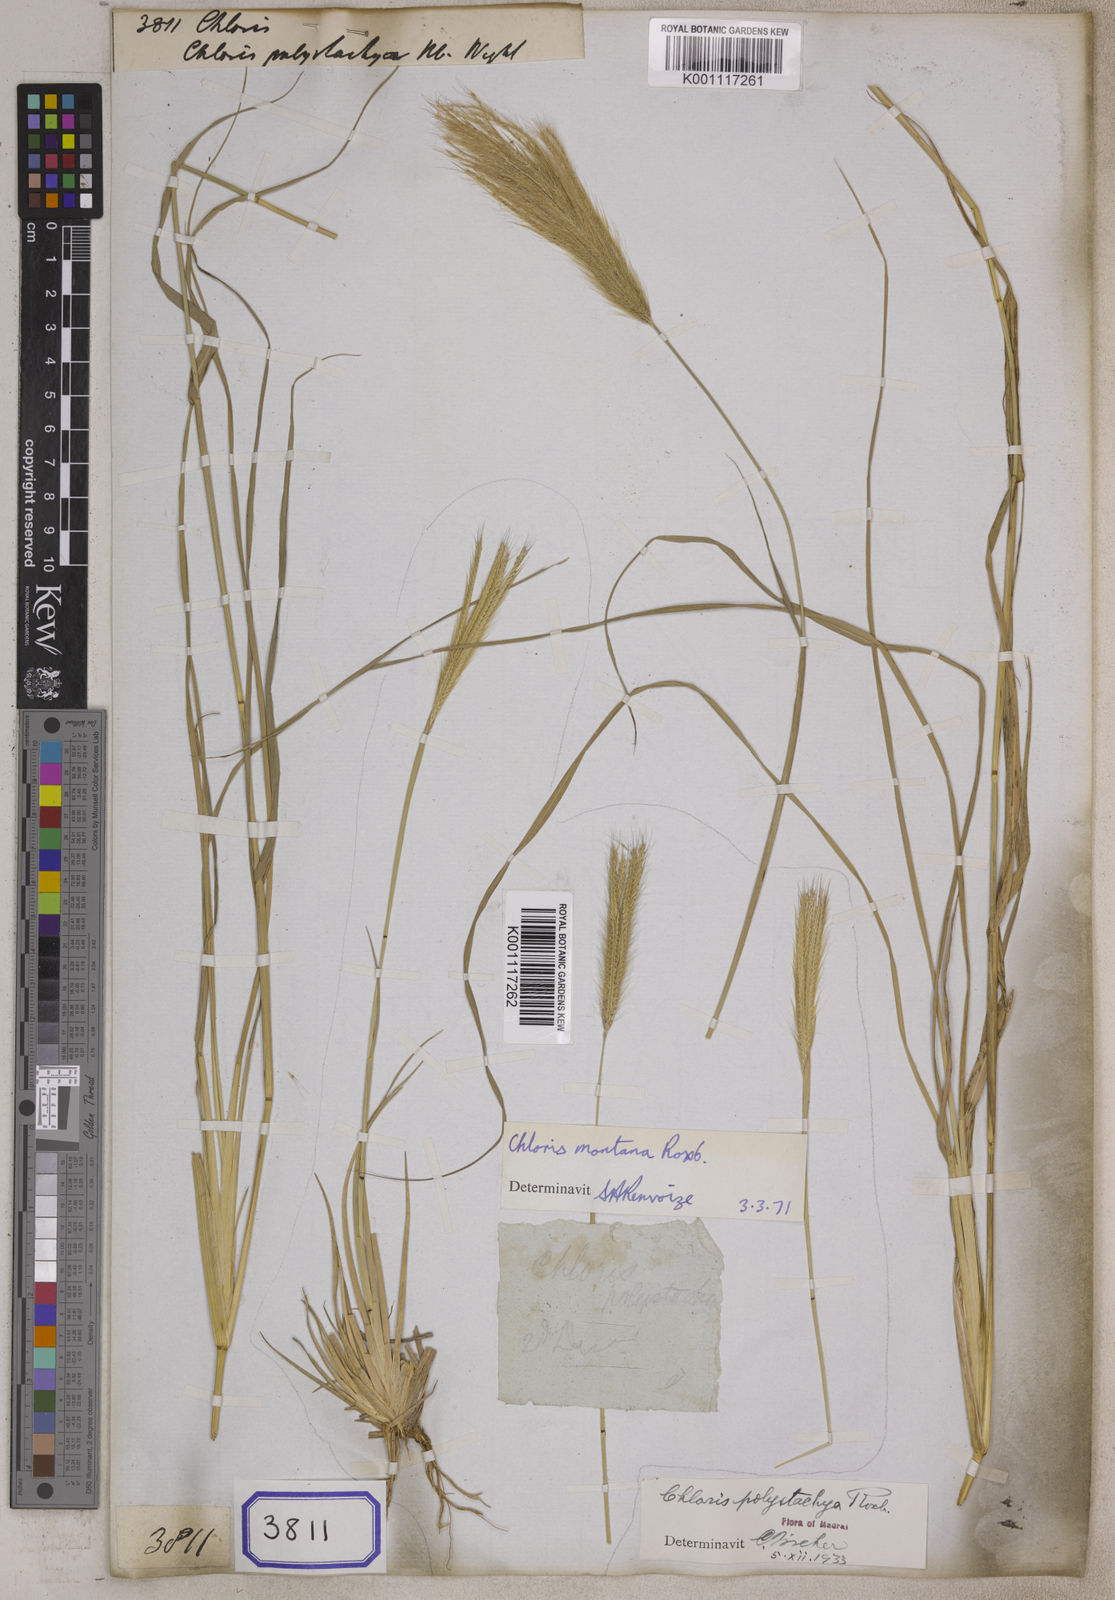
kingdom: Plantae
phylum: Tracheophyta
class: Liliopsida
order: Poales
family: Poaceae
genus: Chloris
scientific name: Chloris
